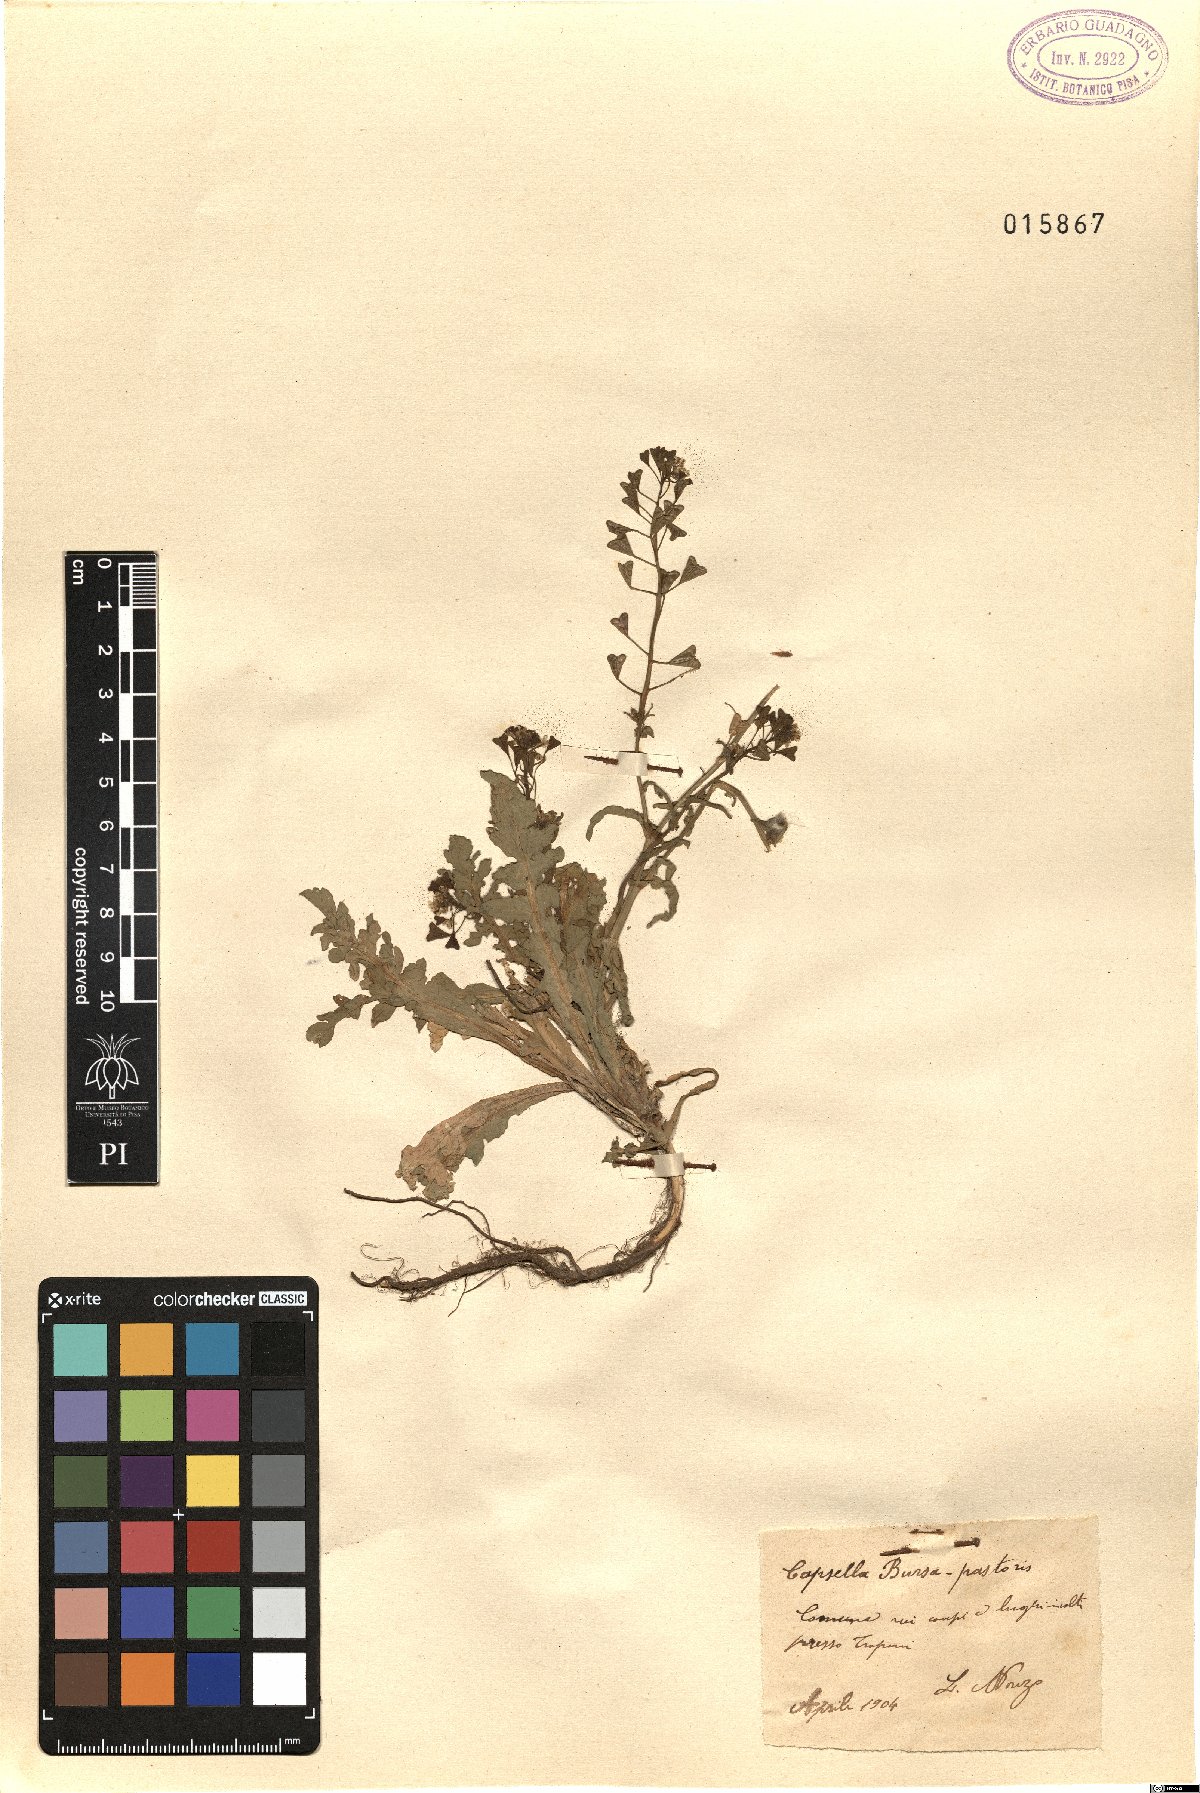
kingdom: Plantae
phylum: Tracheophyta
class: Magnoliopsida
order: Brassicales
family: Brassicaceae
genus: Capsella
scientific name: Capsella bursa-pastoris
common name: Shepherd's purse
